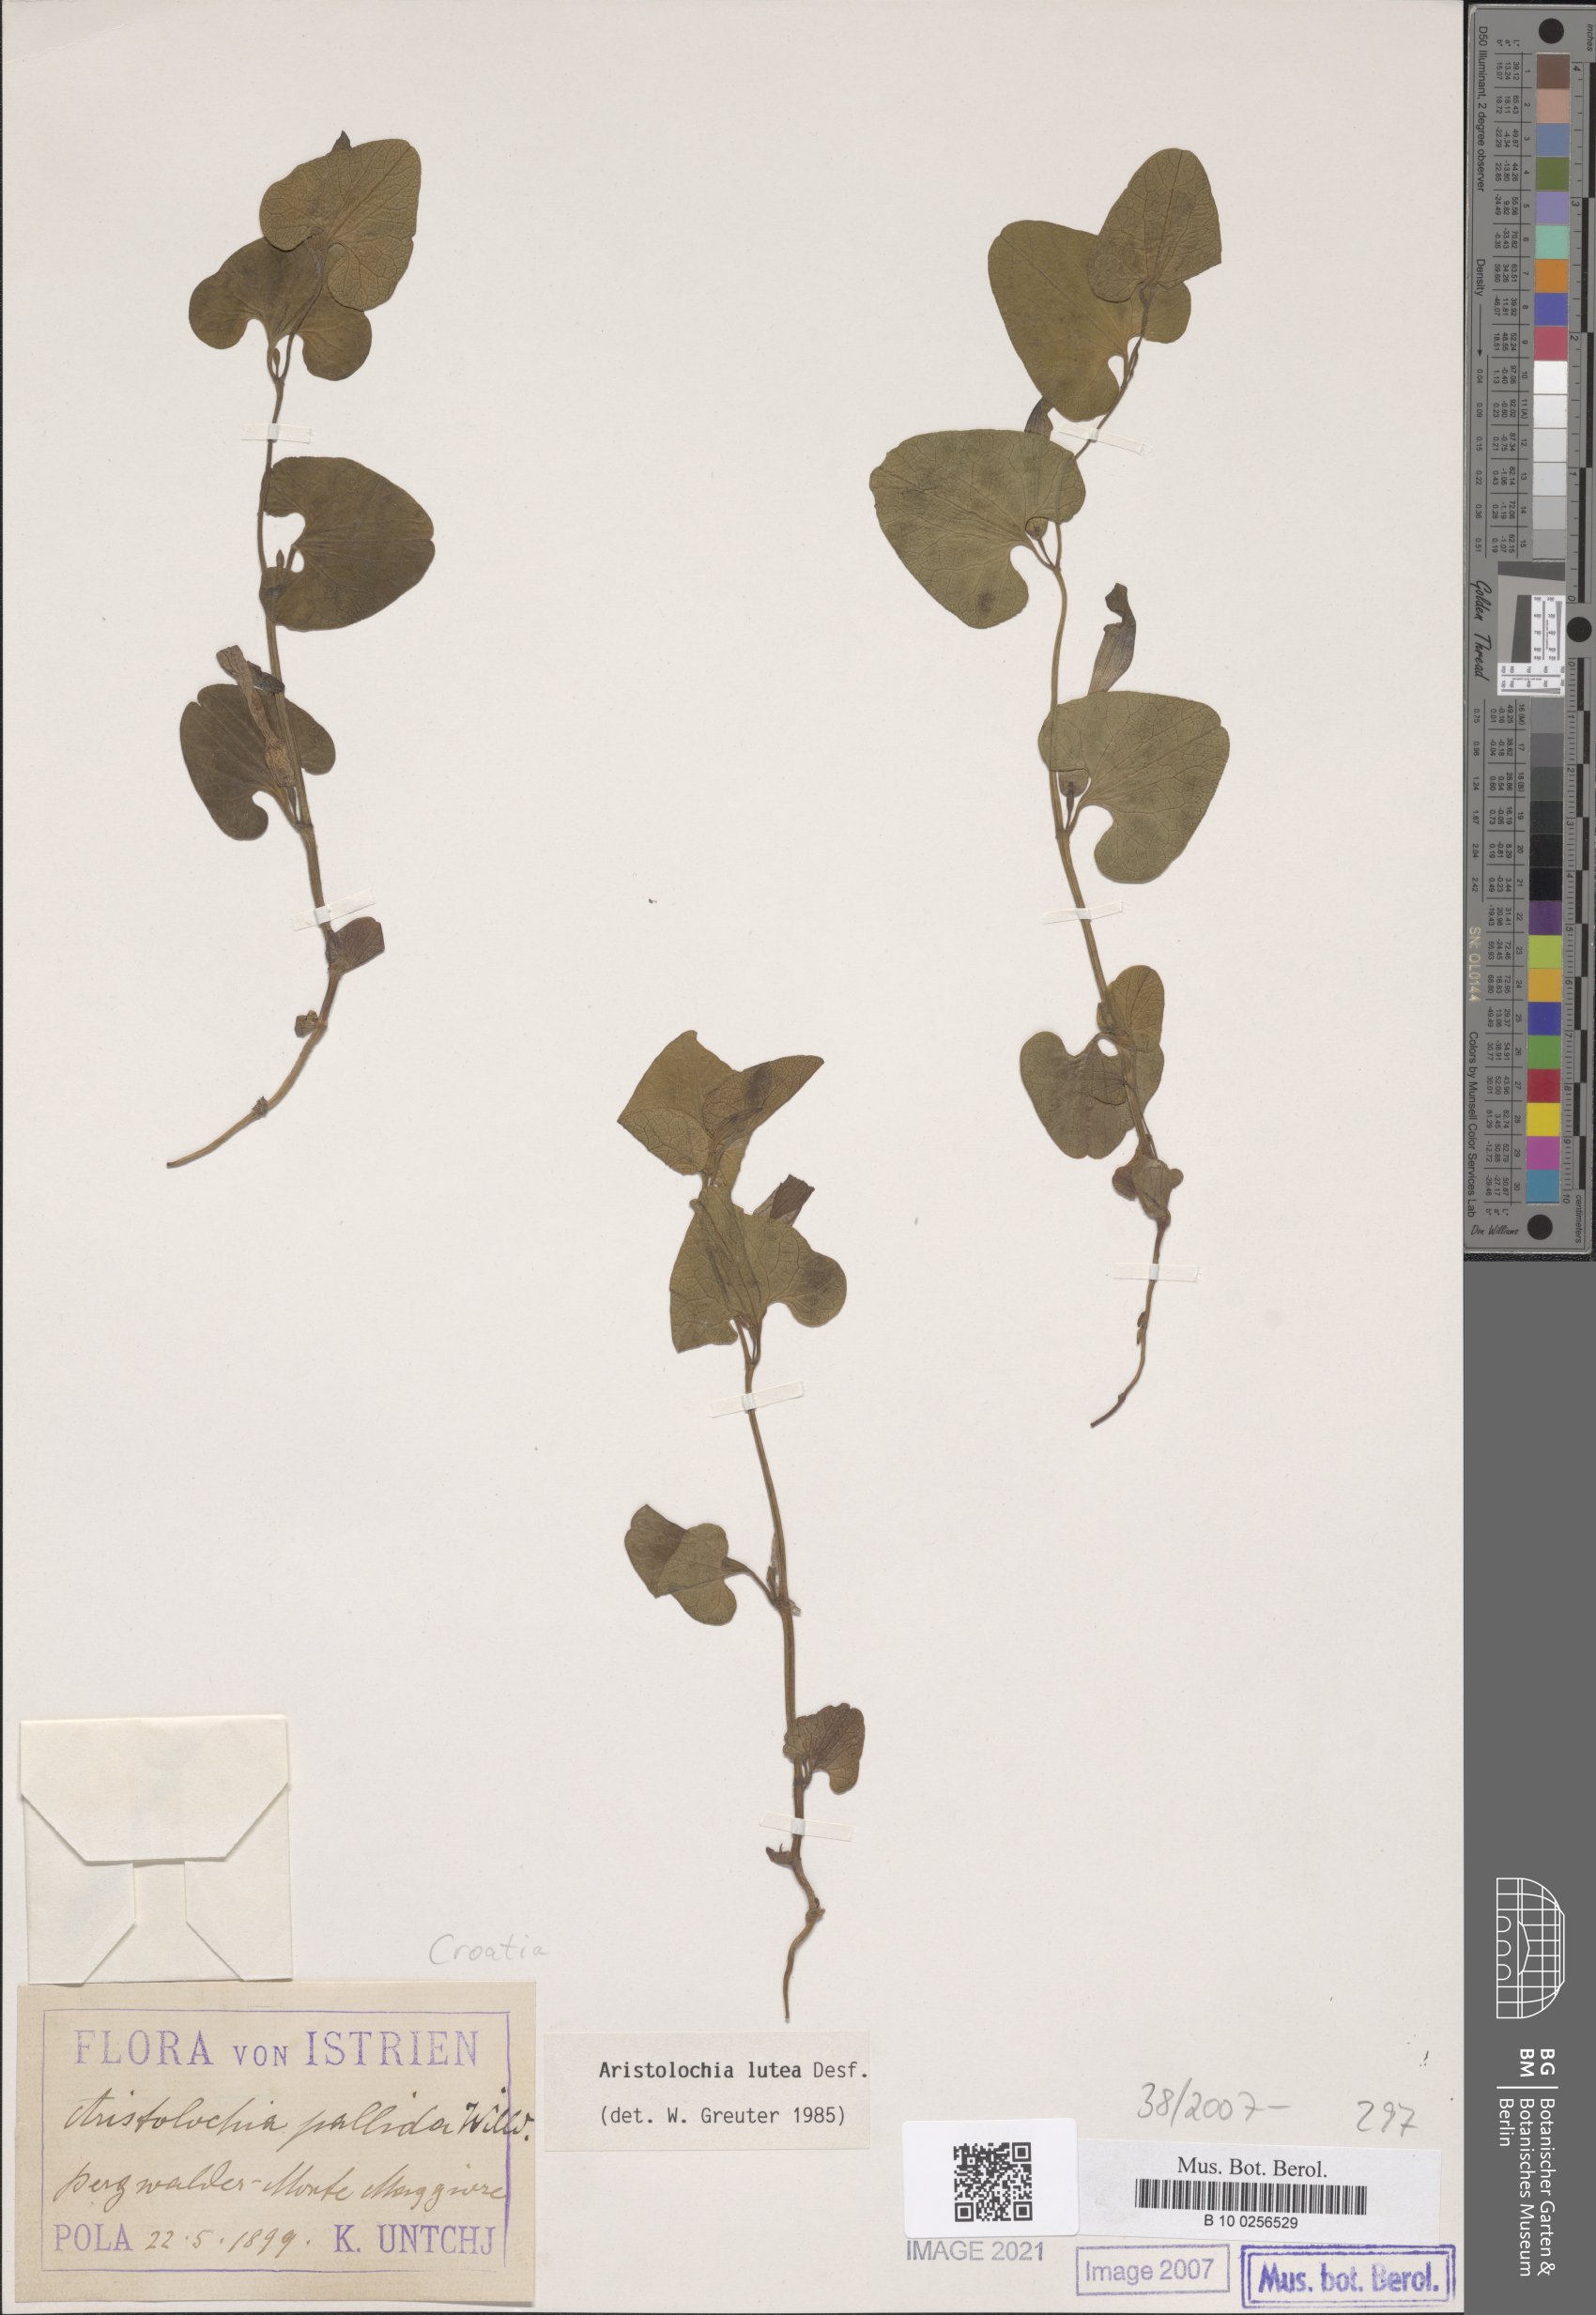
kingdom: Plantae
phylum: Tracheophyta
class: Magnoliopsida
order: Piperales
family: Aristolochiaceae
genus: Aristolochia
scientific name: Aristolochia lutea
